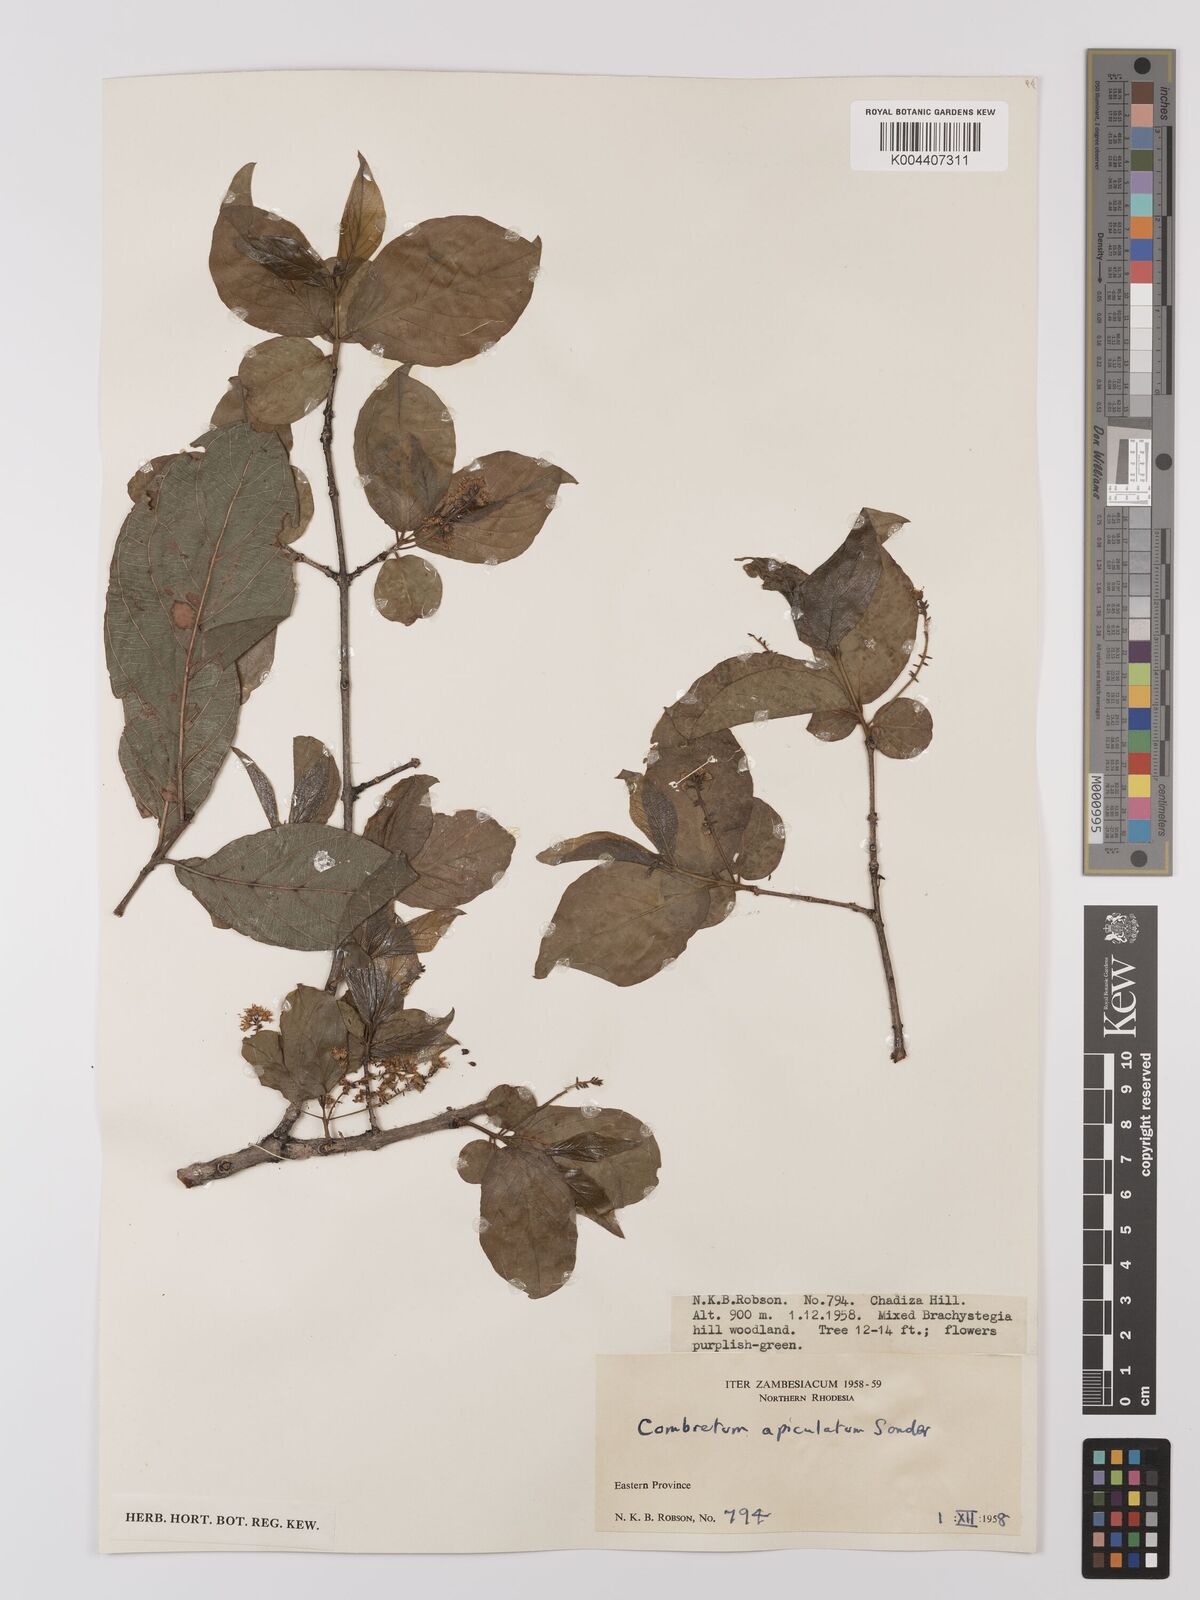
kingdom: Plantae
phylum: Tracheophyta
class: Magnoliopsida
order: Myrtales
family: Combretaceae
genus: Combretum
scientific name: Combretum apiculatum
